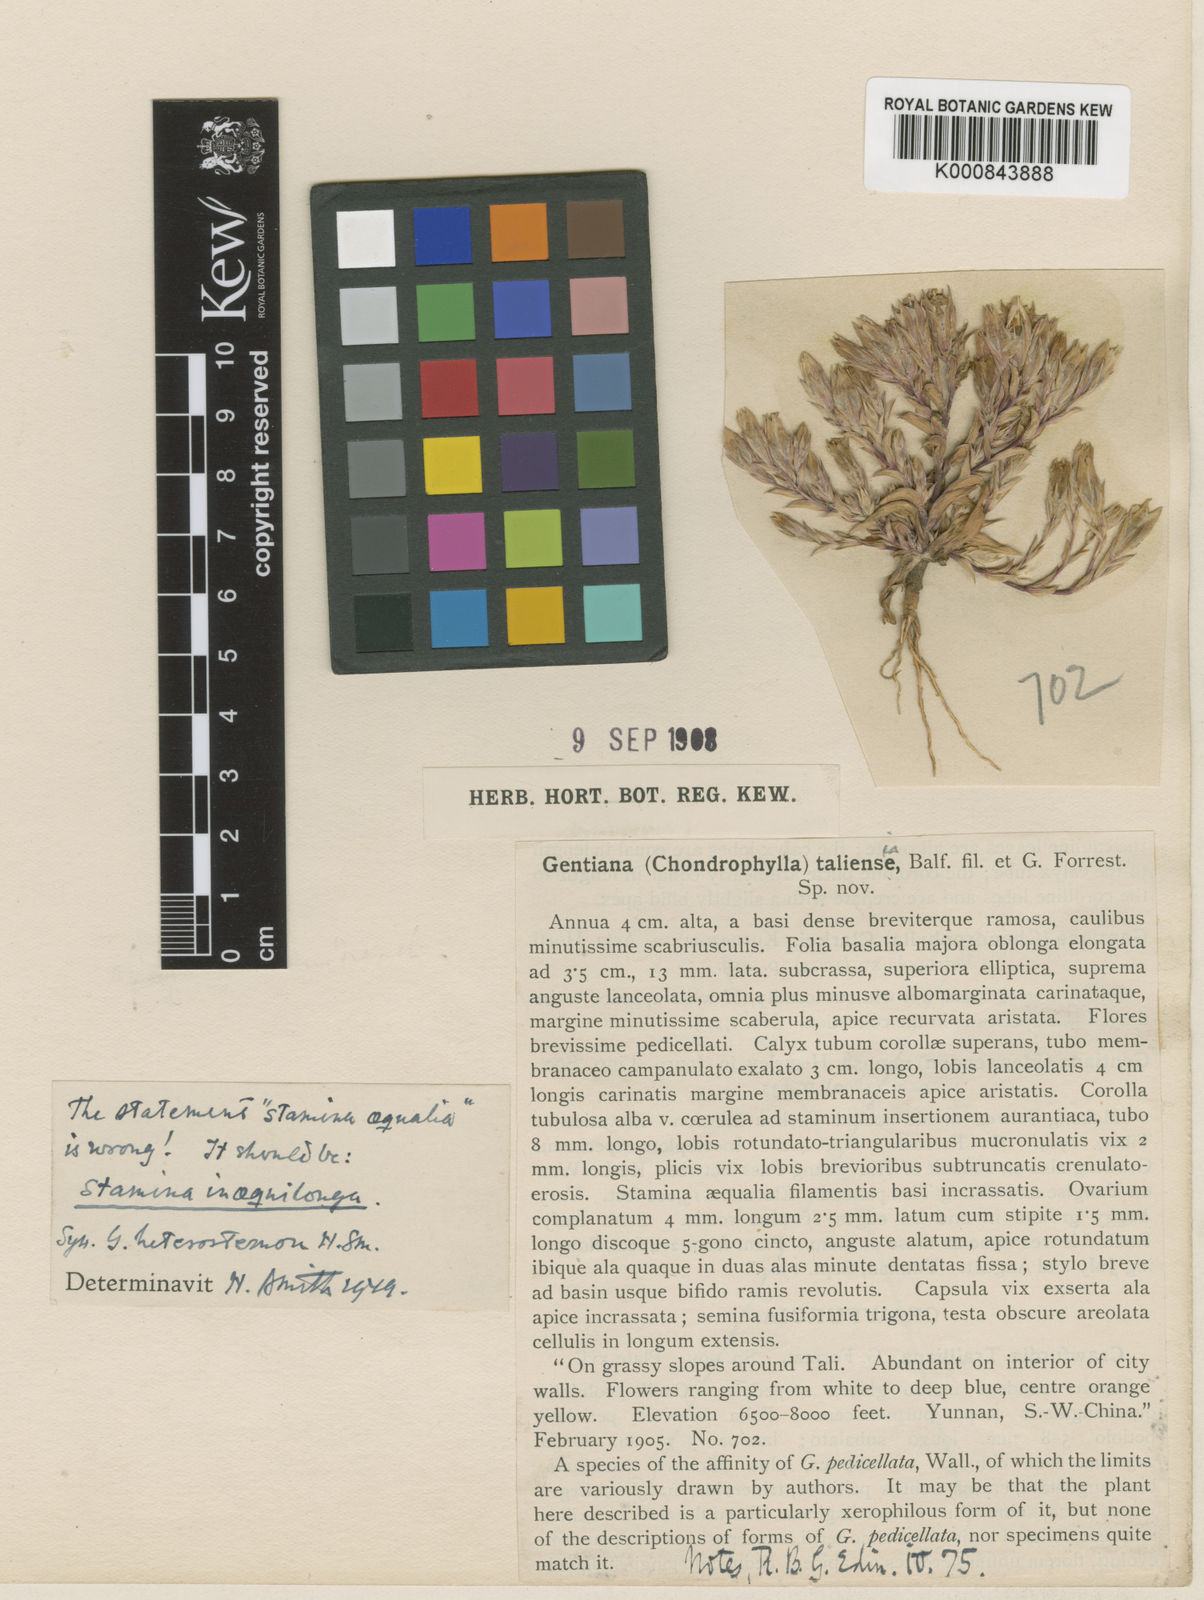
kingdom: Plantae
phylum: Tracheophyta
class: Magnoliopsida
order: Gentianales
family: Gentianaceae
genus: Gentiana
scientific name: Gentiana taliensis
